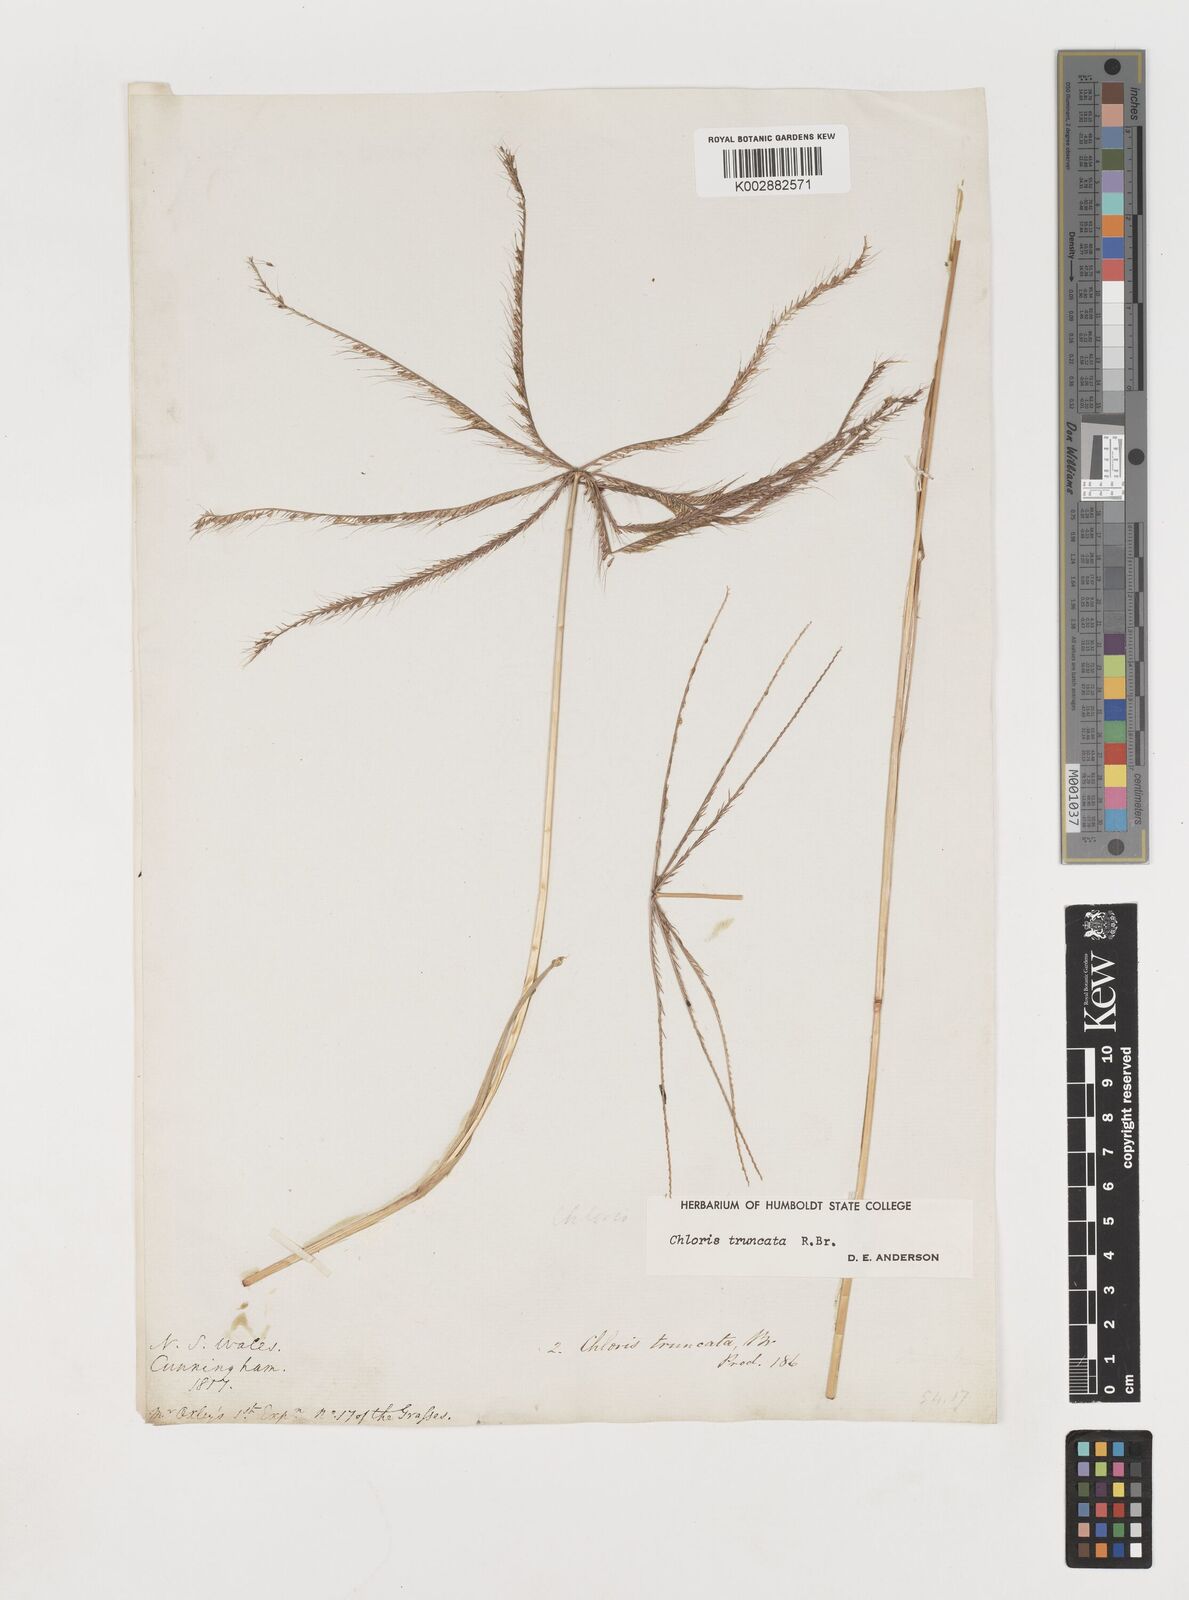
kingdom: Plantae
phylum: Tracheophyta
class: Liliopsida
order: Poales
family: Poaceae
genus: Chloris
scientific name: Chloris truncata
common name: Windmill-grass
